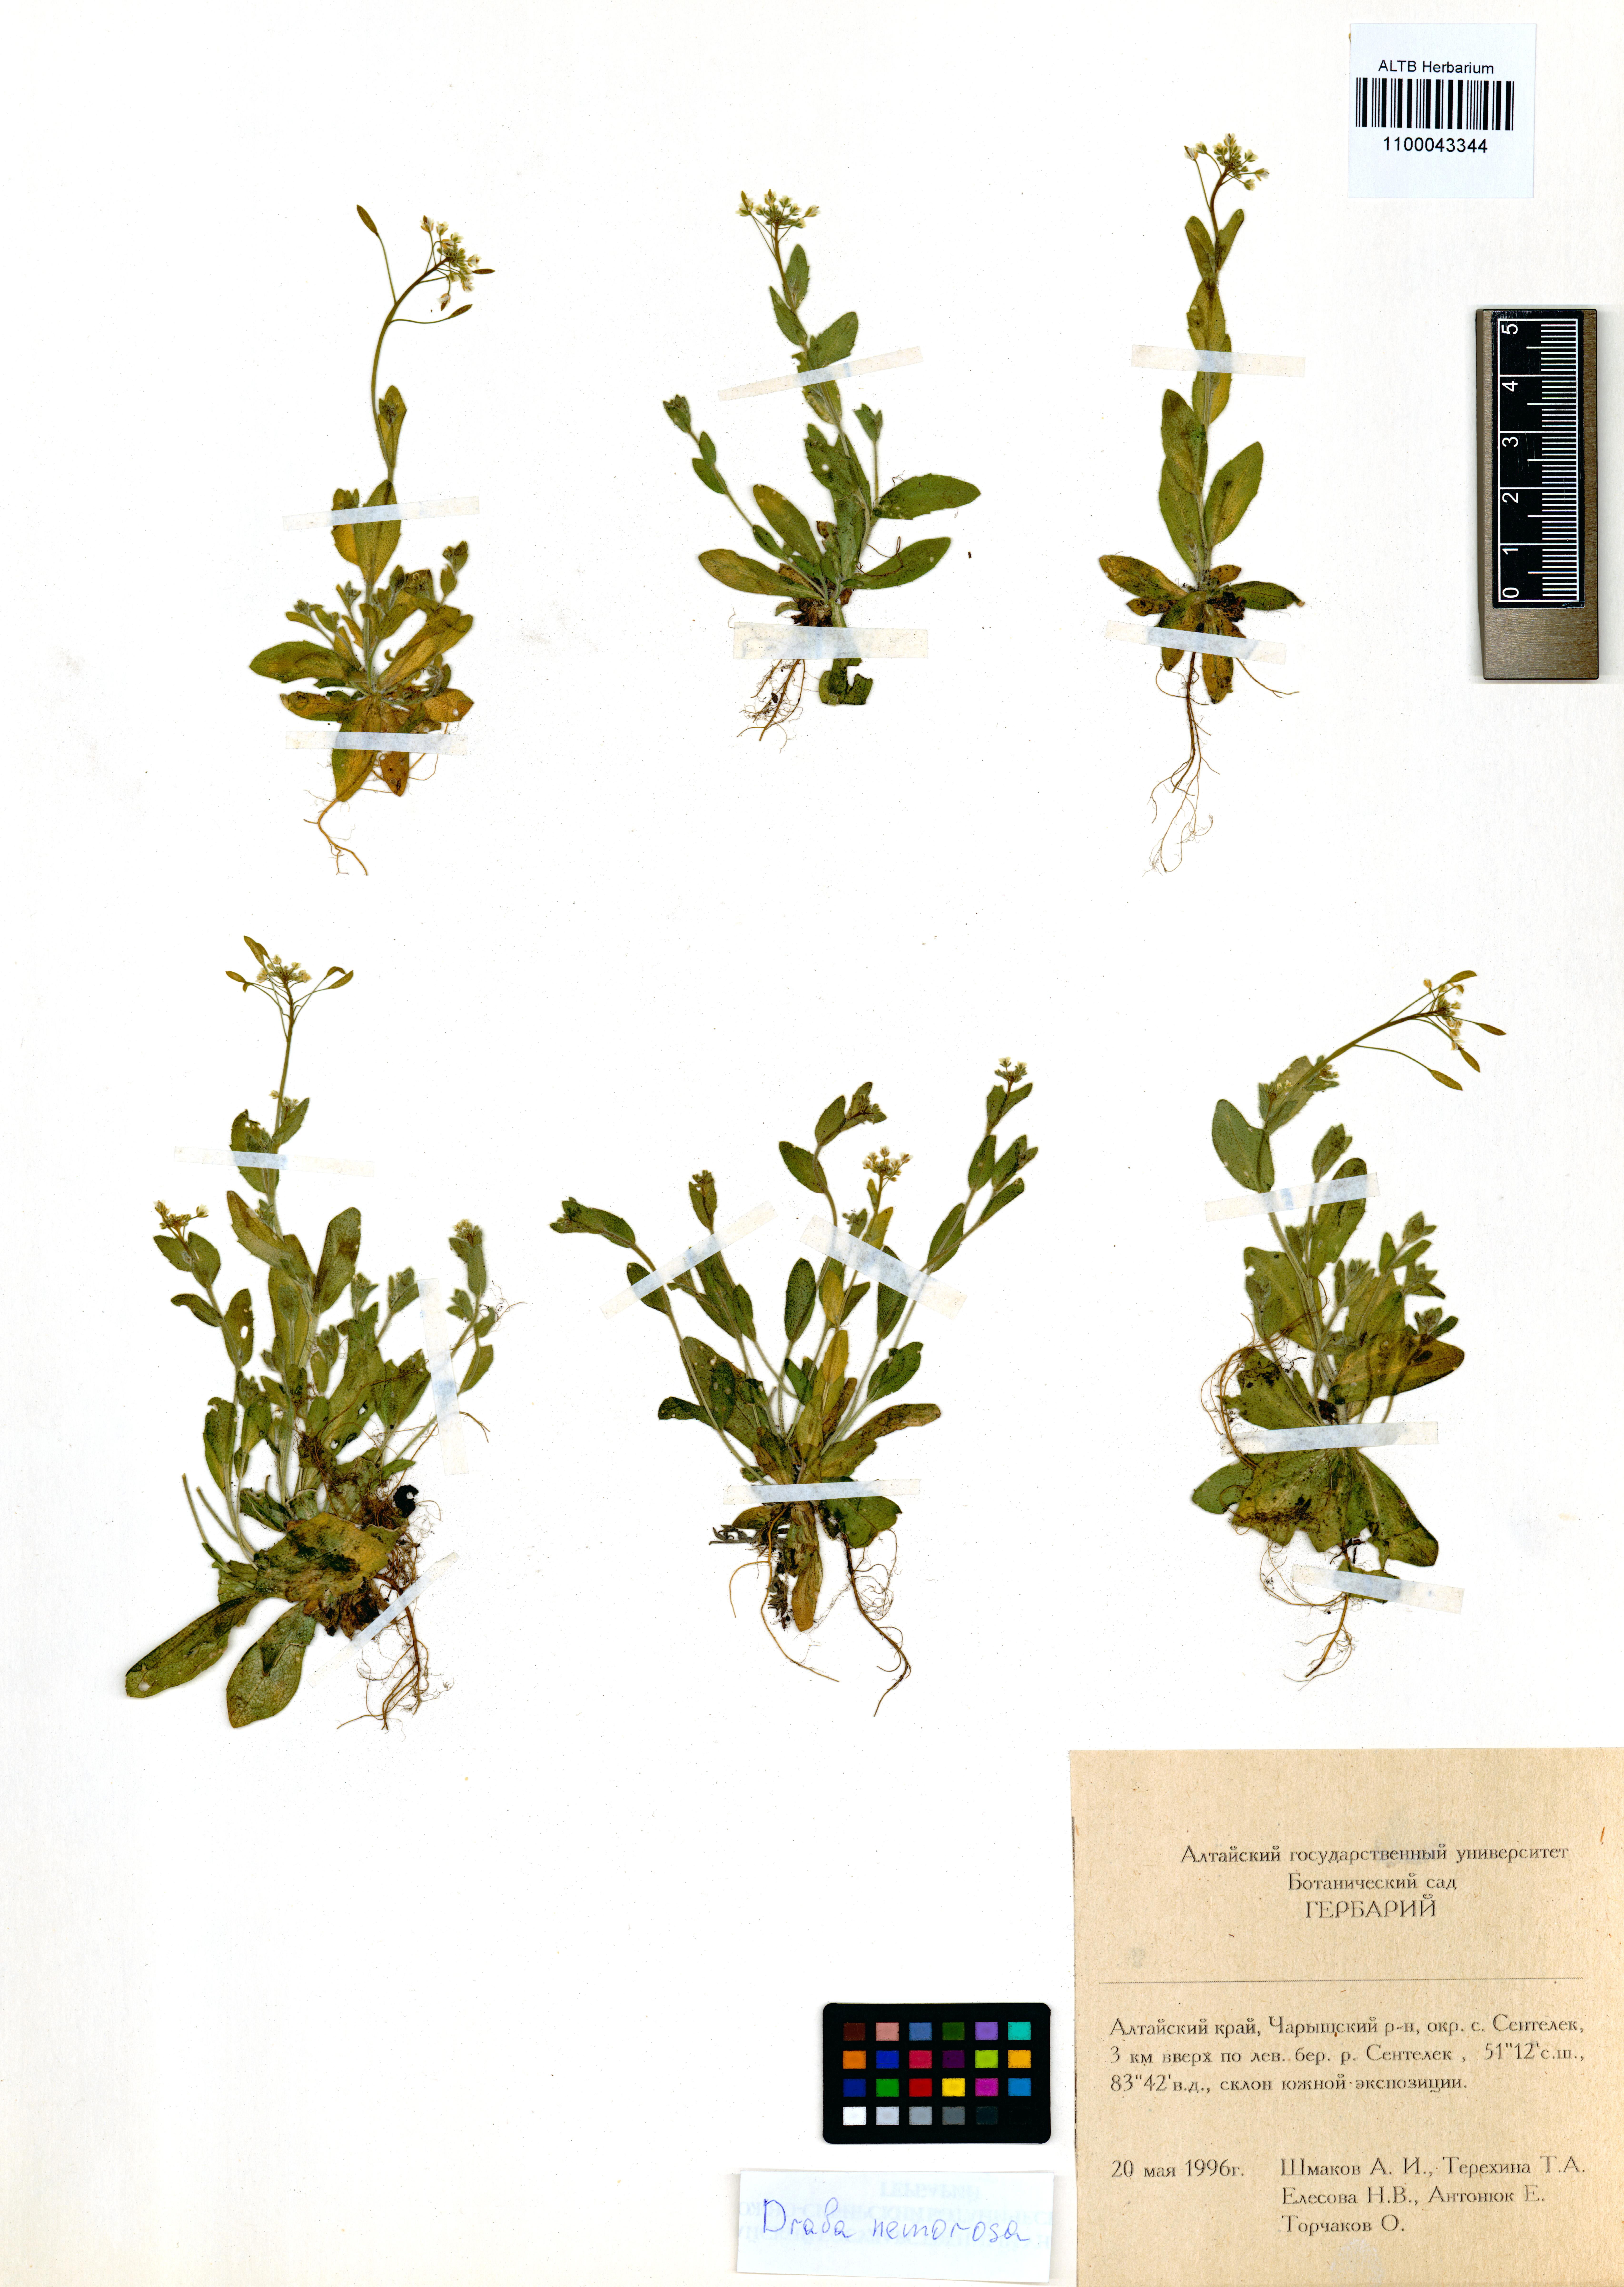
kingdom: Plantae
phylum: Tracheophyta
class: Magnoliopsida
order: Brassicales
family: Brassicaceae
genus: Draba
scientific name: Draba nemorosa
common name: Wood whitlow-grass
